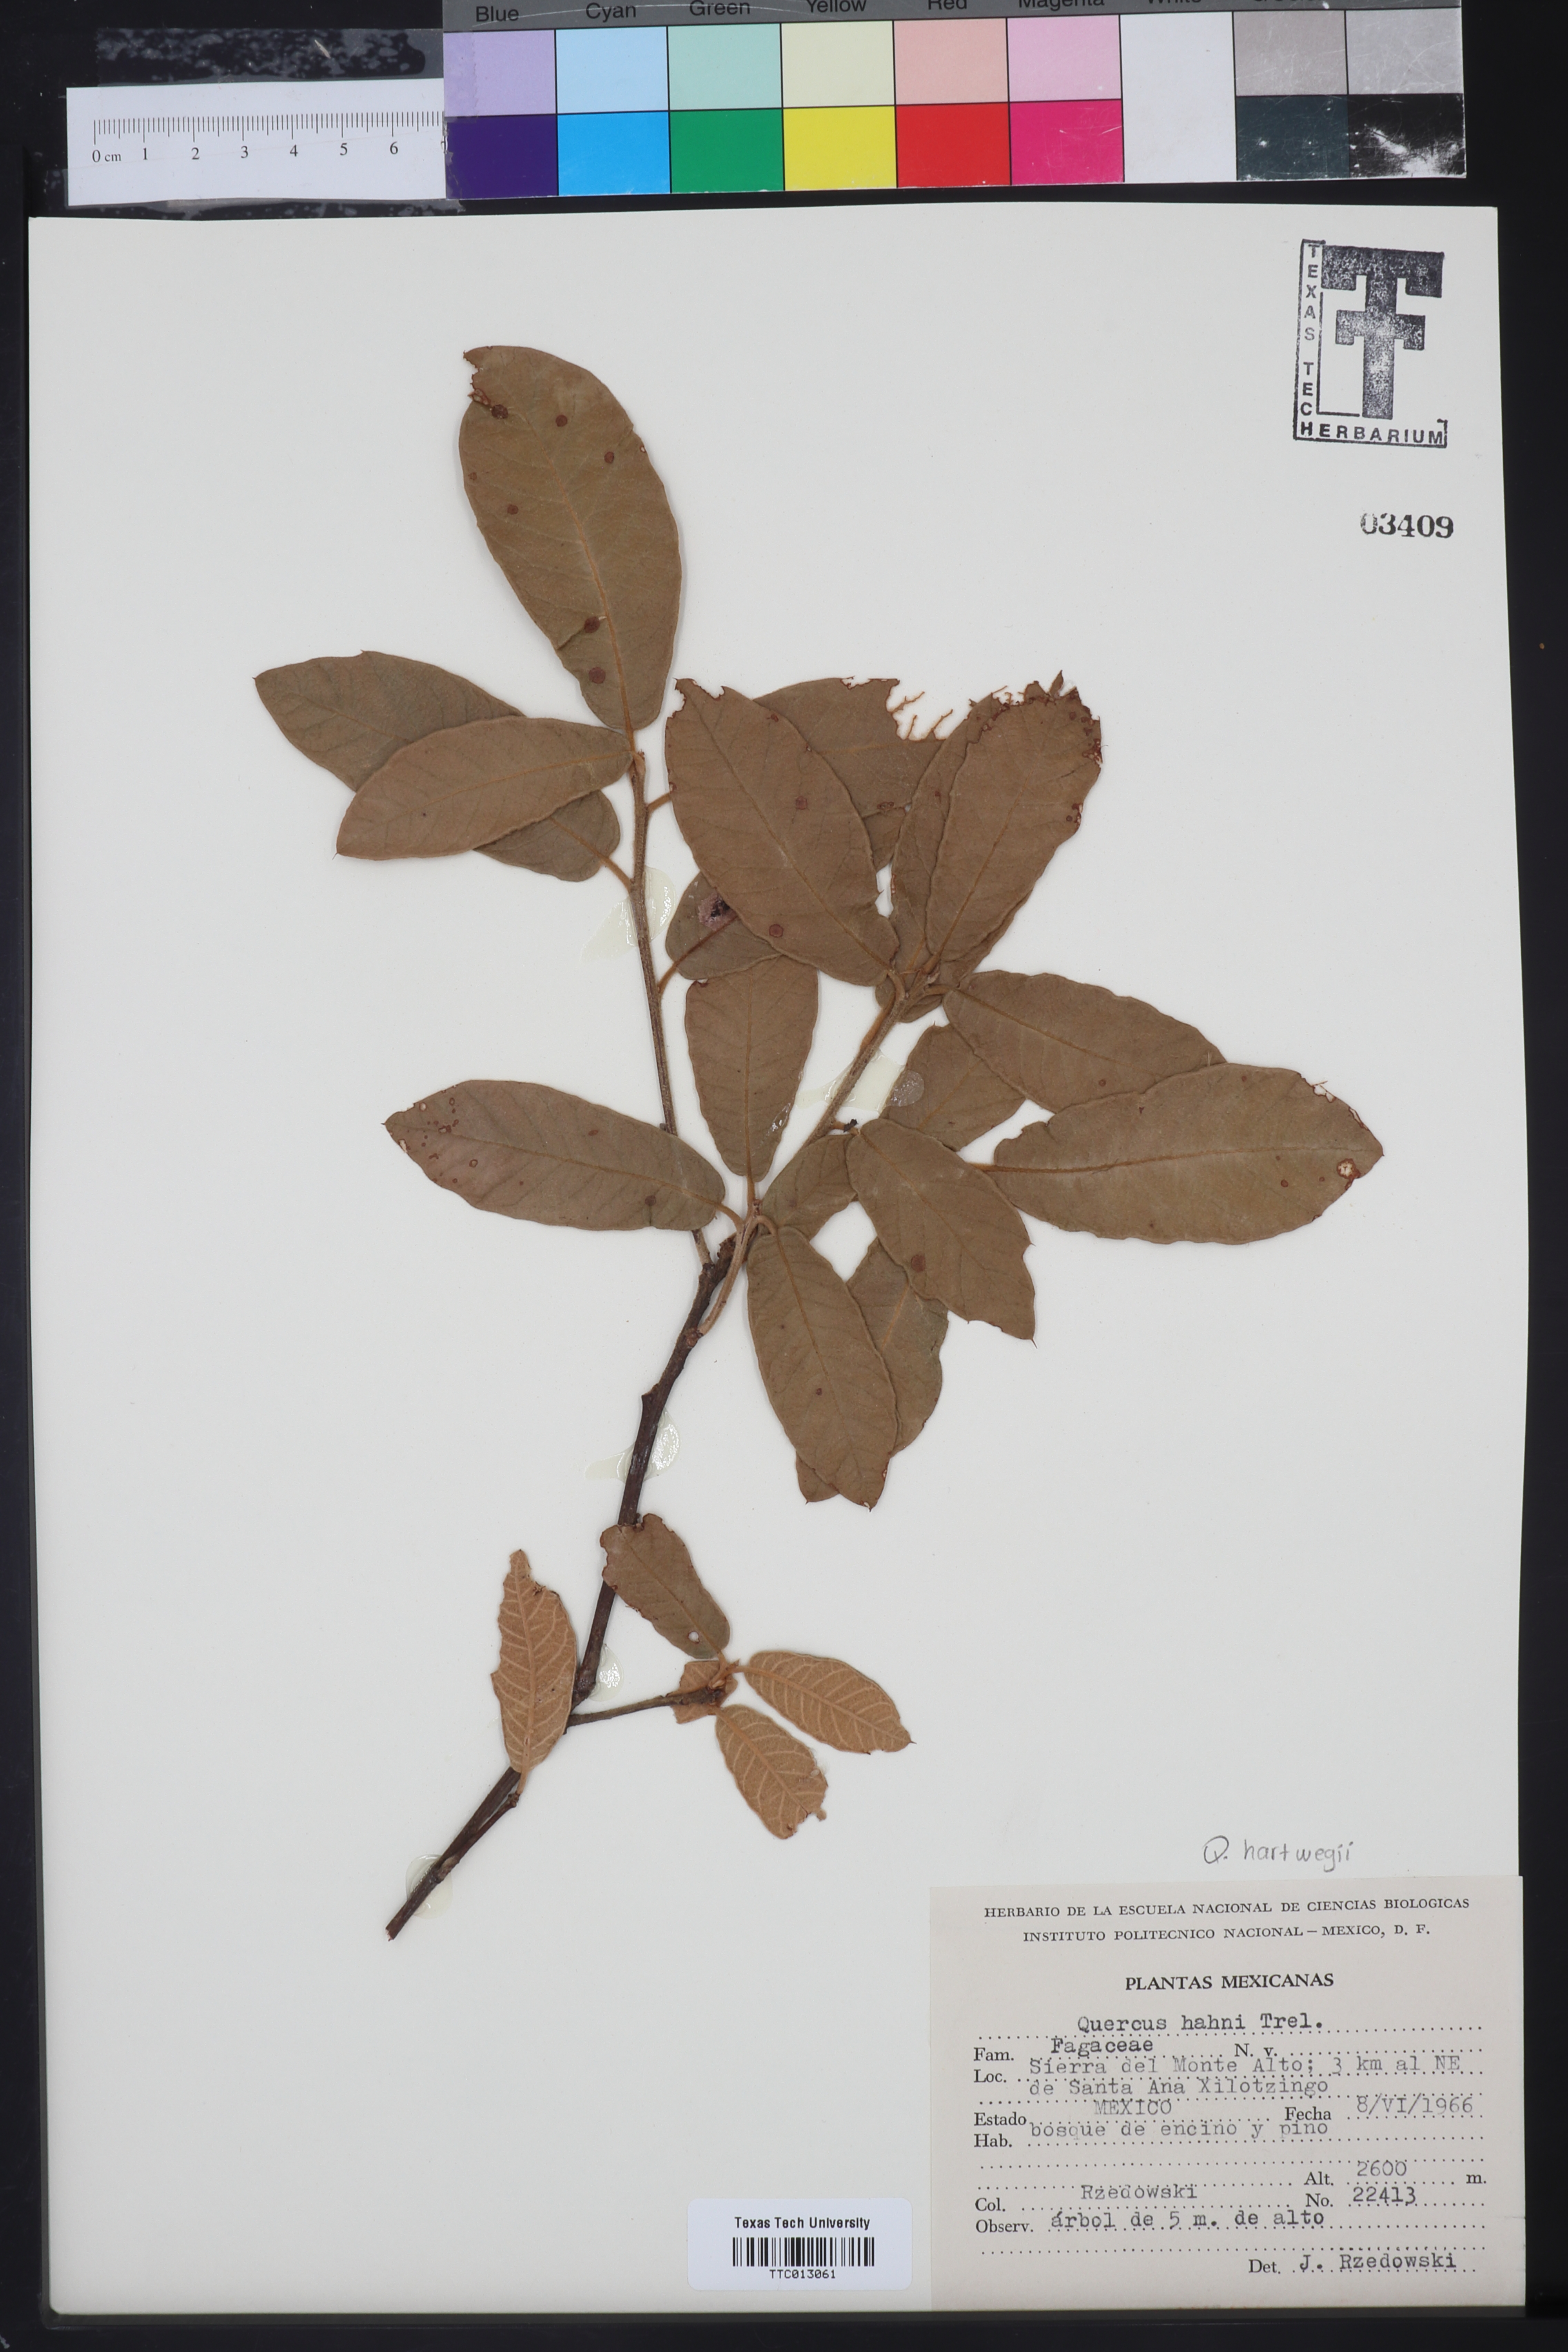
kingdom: Plantae
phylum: Tracheophyta
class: Magnoliopsida
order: Fagales
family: Fagaceae
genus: Quercus
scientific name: Quercus dysophylla
